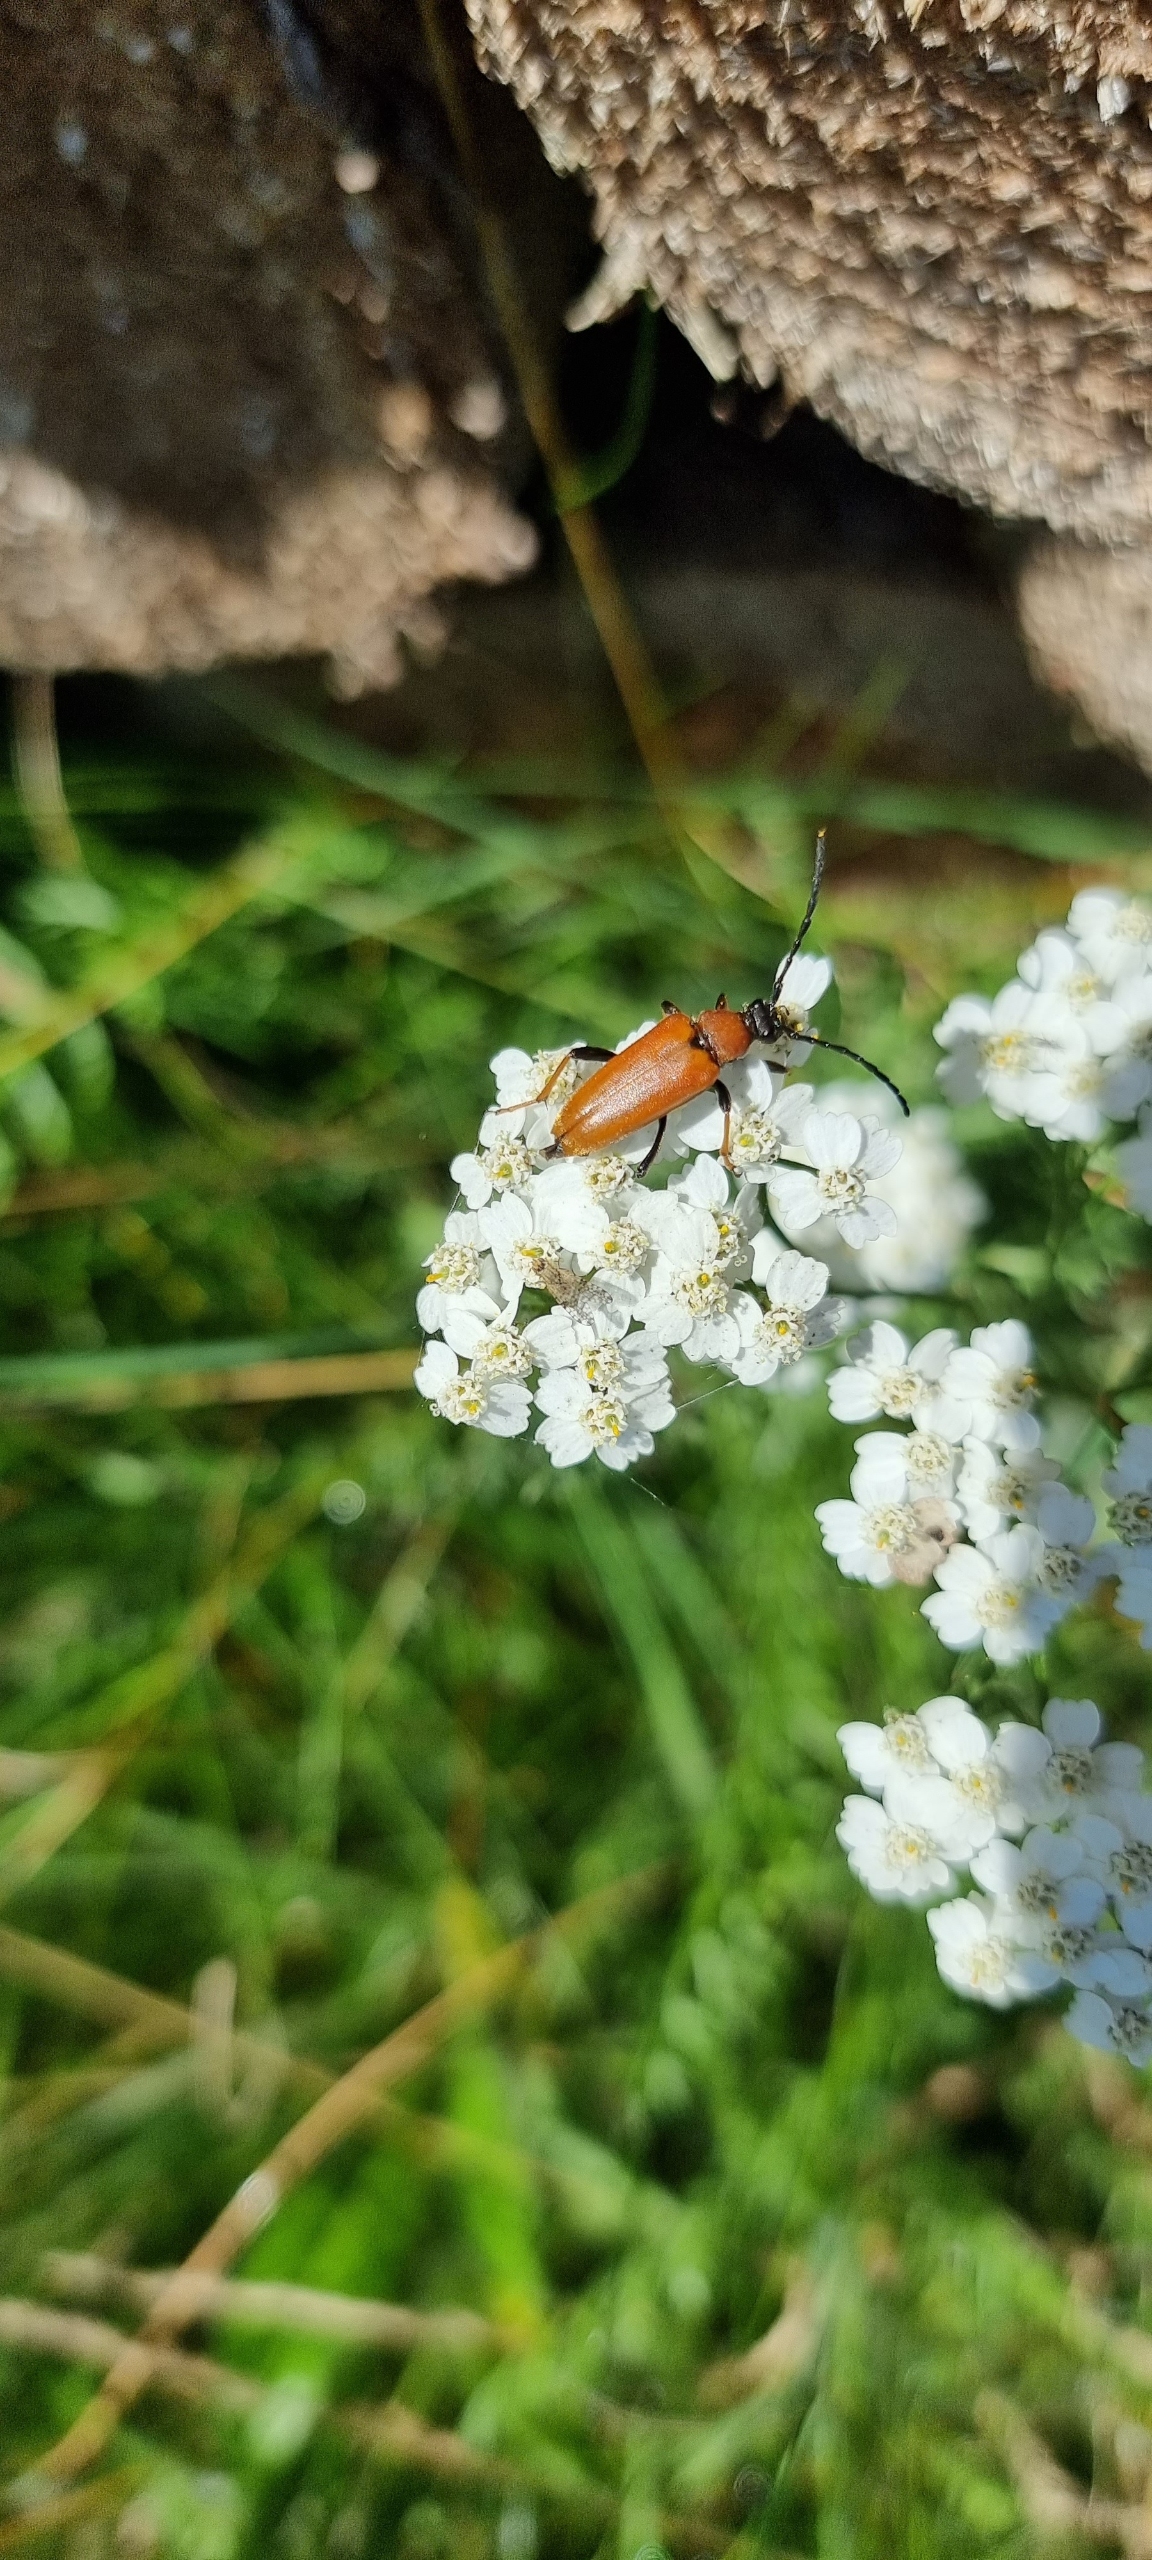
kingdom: Animalia
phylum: Arthropoda
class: Insecta
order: Coleoptera
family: Cerambycidae
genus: Stictoleptura
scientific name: Stictoleptura rubra
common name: Rød blomsterbuk
